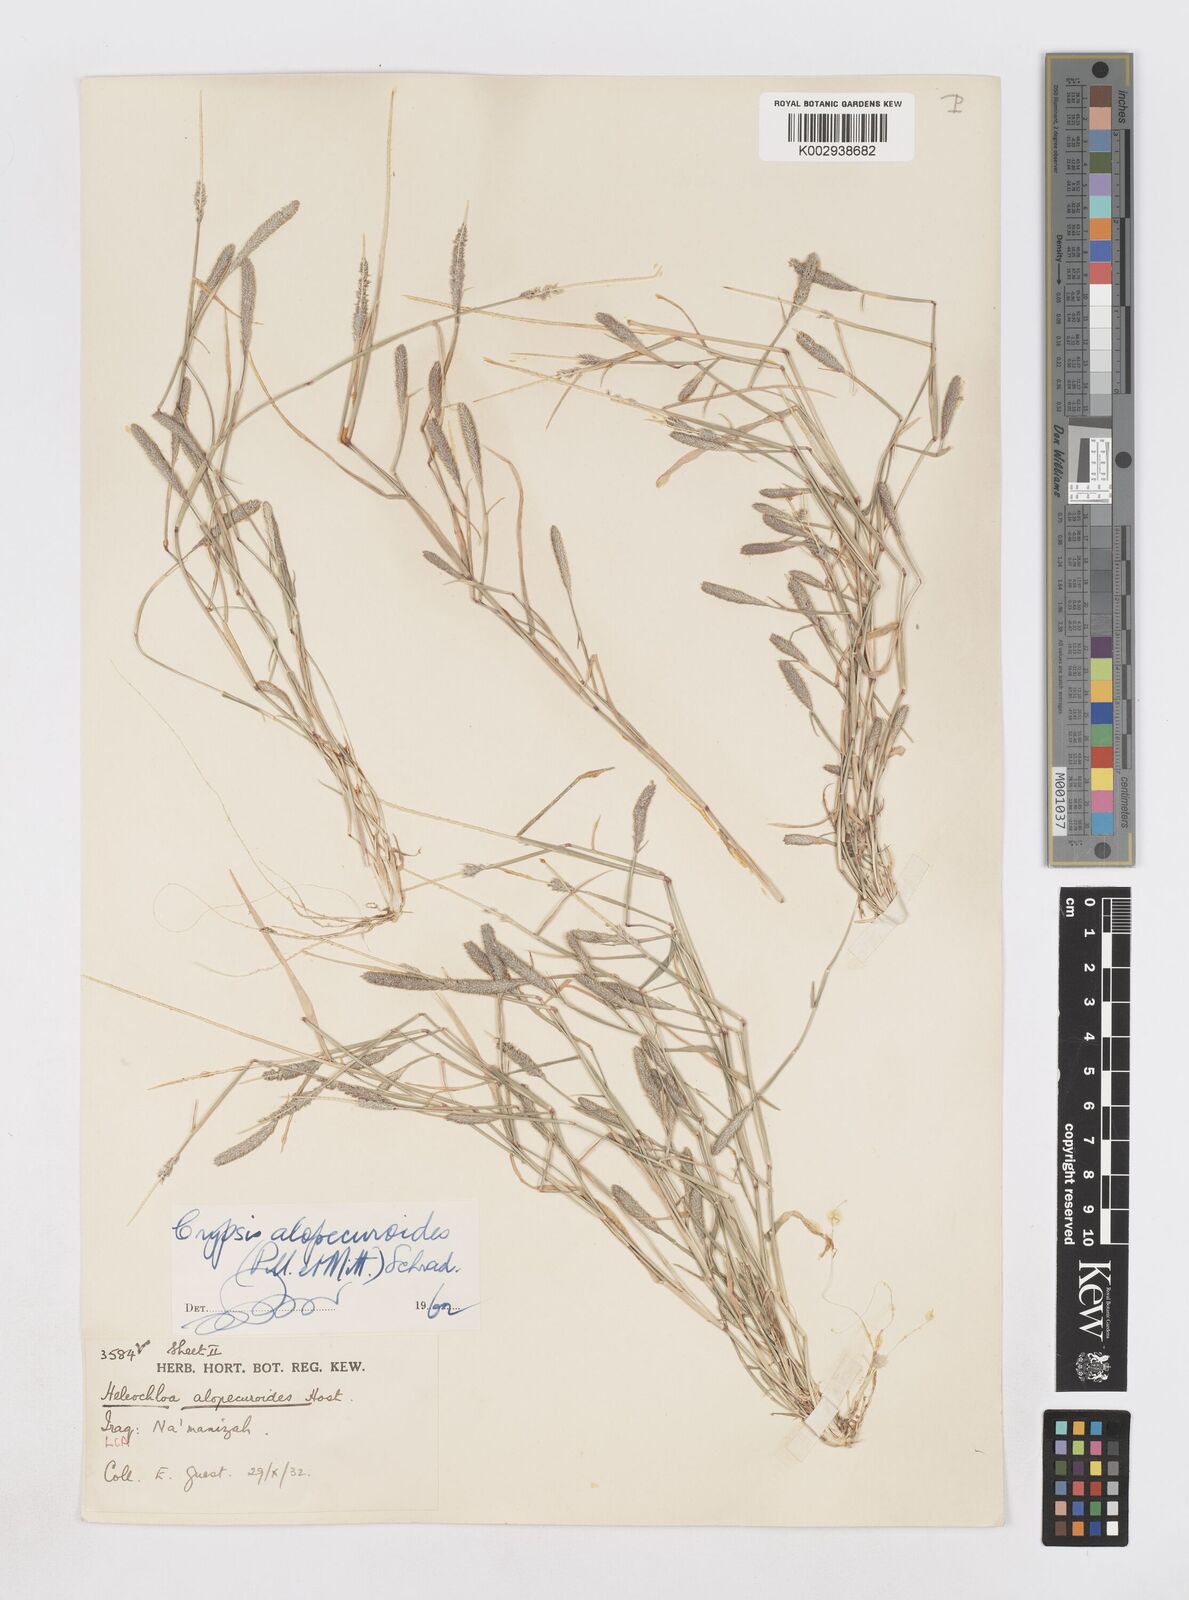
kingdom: Plantae
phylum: Tracheophyta
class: Liliopsida
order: Poales
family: Poaceae
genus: Sporobolus
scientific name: Sporobolus alopecuroides
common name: Foxtail pricklegrass
